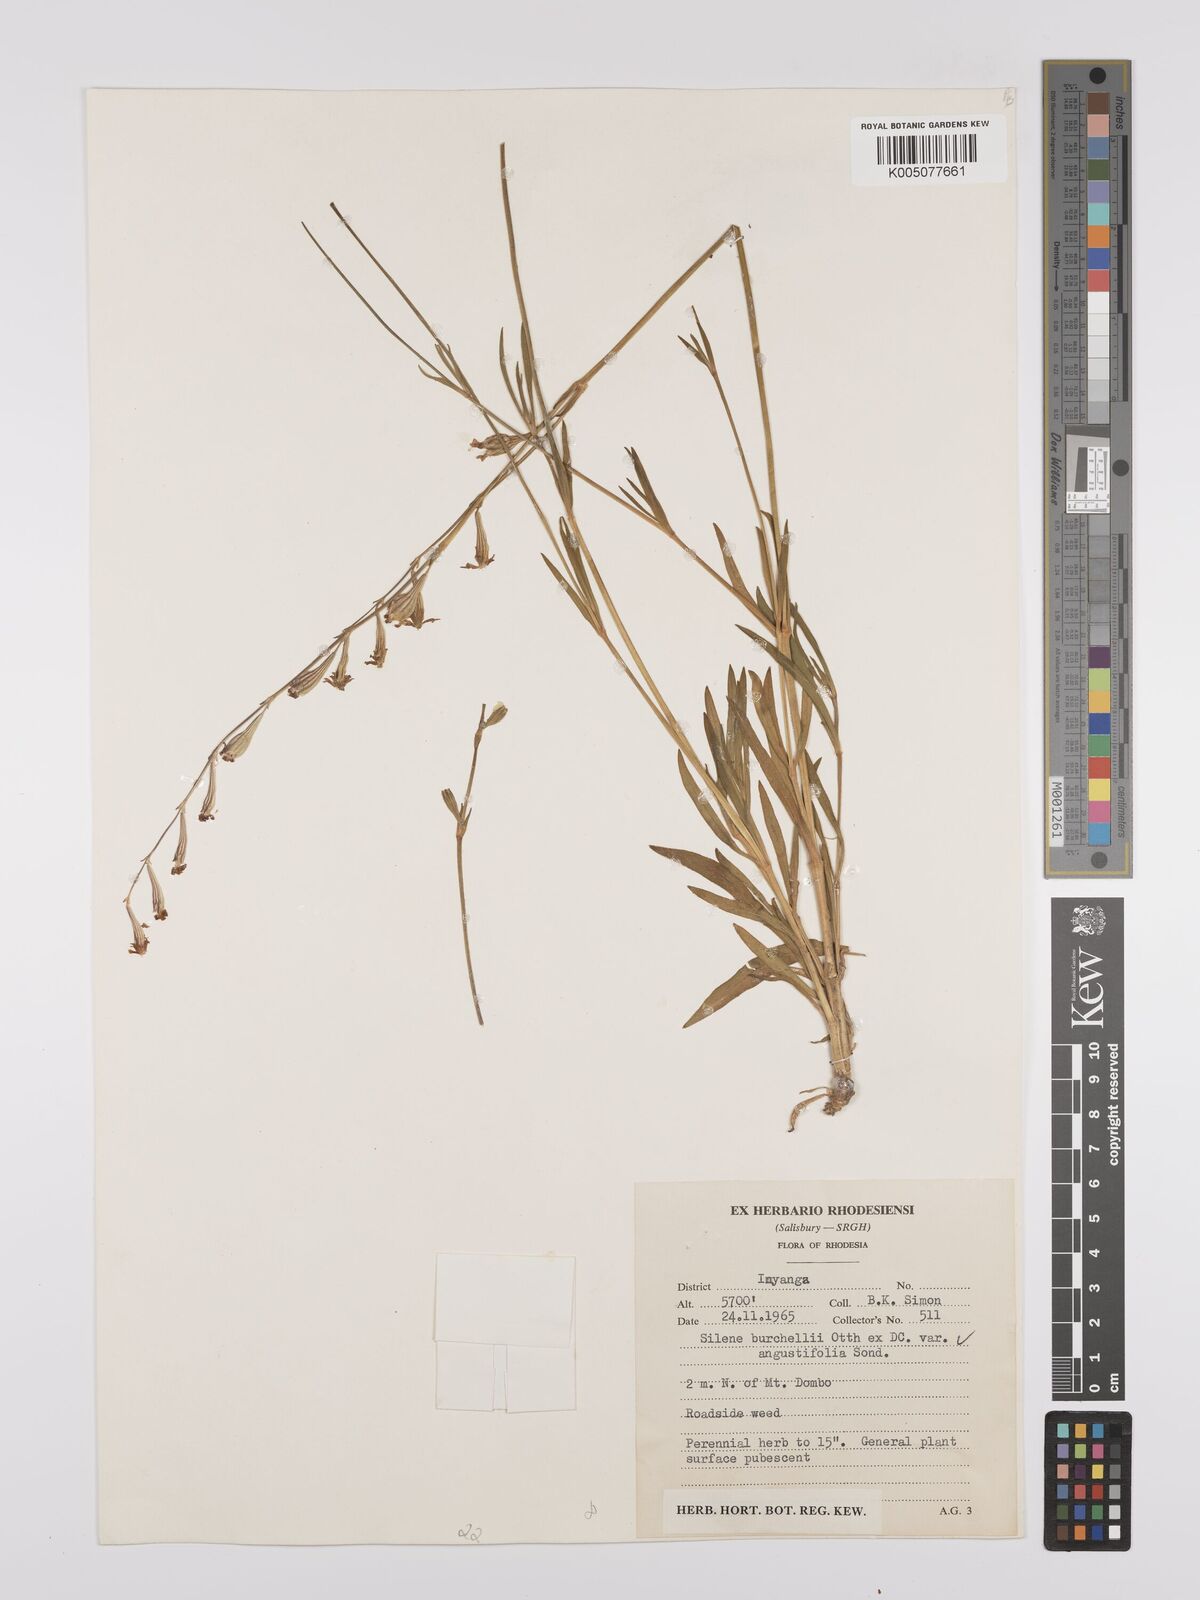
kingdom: Plantae
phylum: Tracheophyta
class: Magnoliopsida
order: Caryophyllales
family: Caryophyllaceae
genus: Silene
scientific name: Silene burchellii
